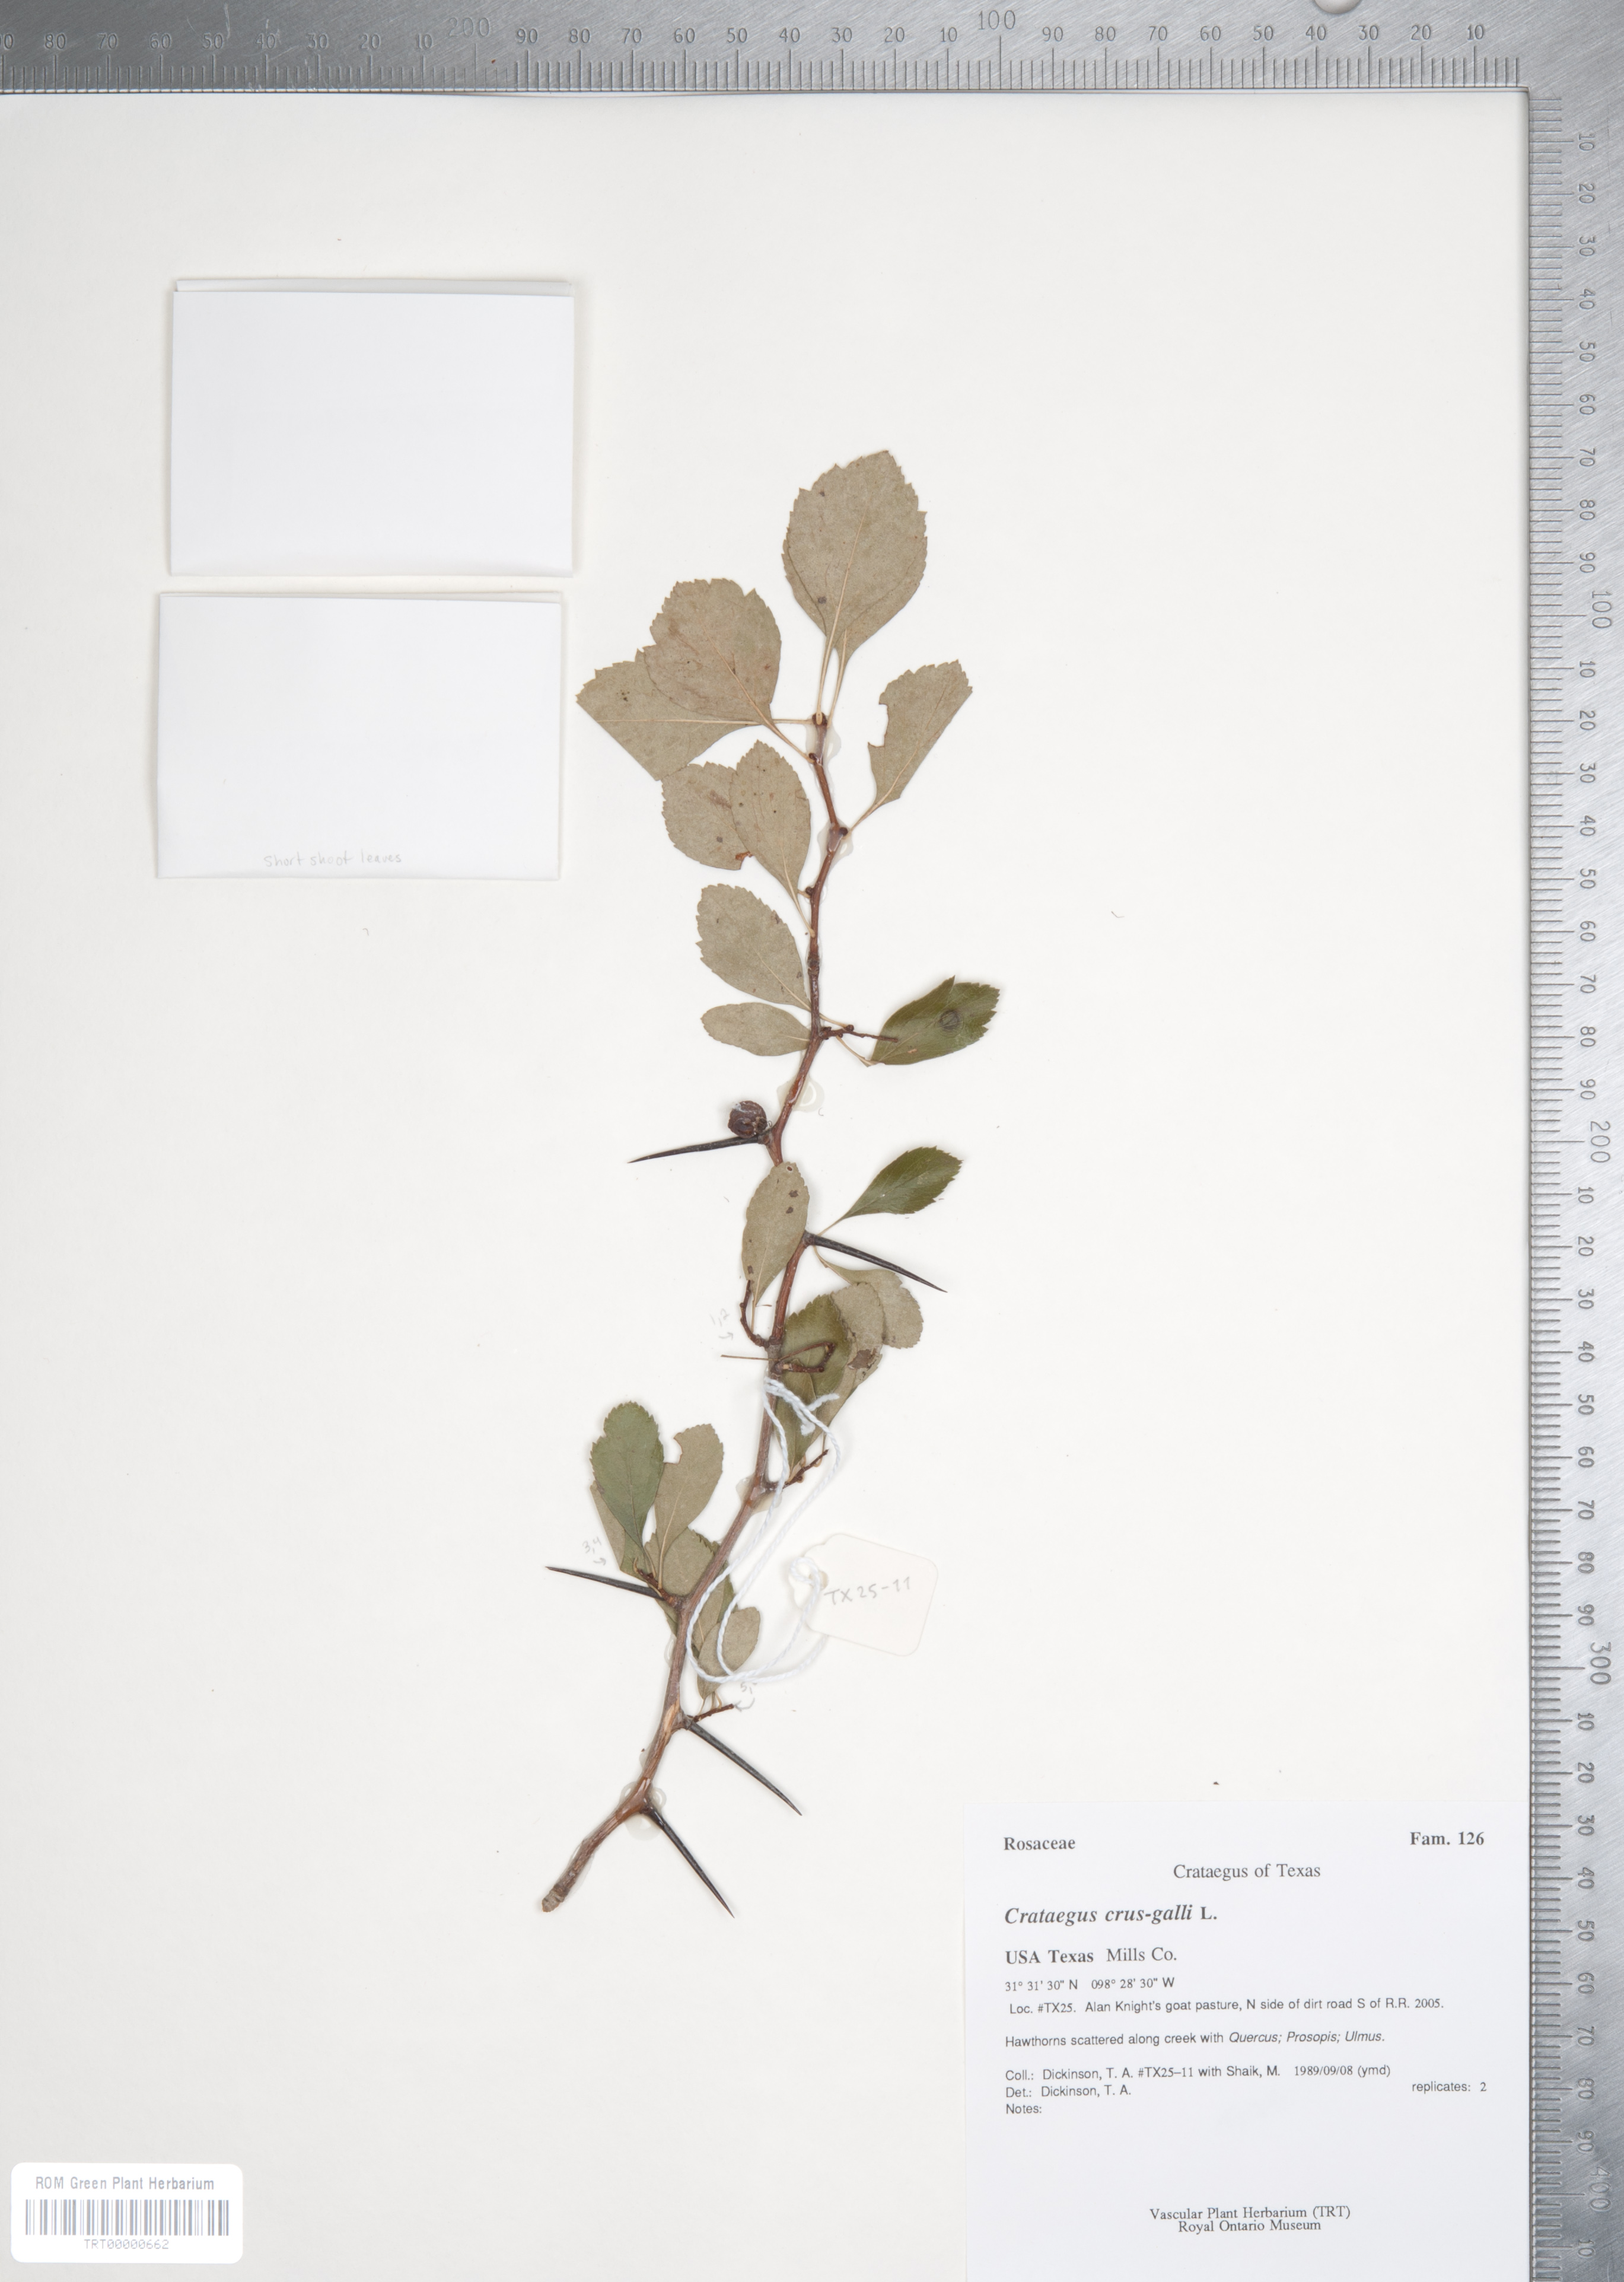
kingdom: Plantae
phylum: Tracheophyta
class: Magnoliopsida
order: Rosales
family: Rosaceae
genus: Crataegus
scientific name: Crataegus crus-galli
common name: Cockspurthorn
